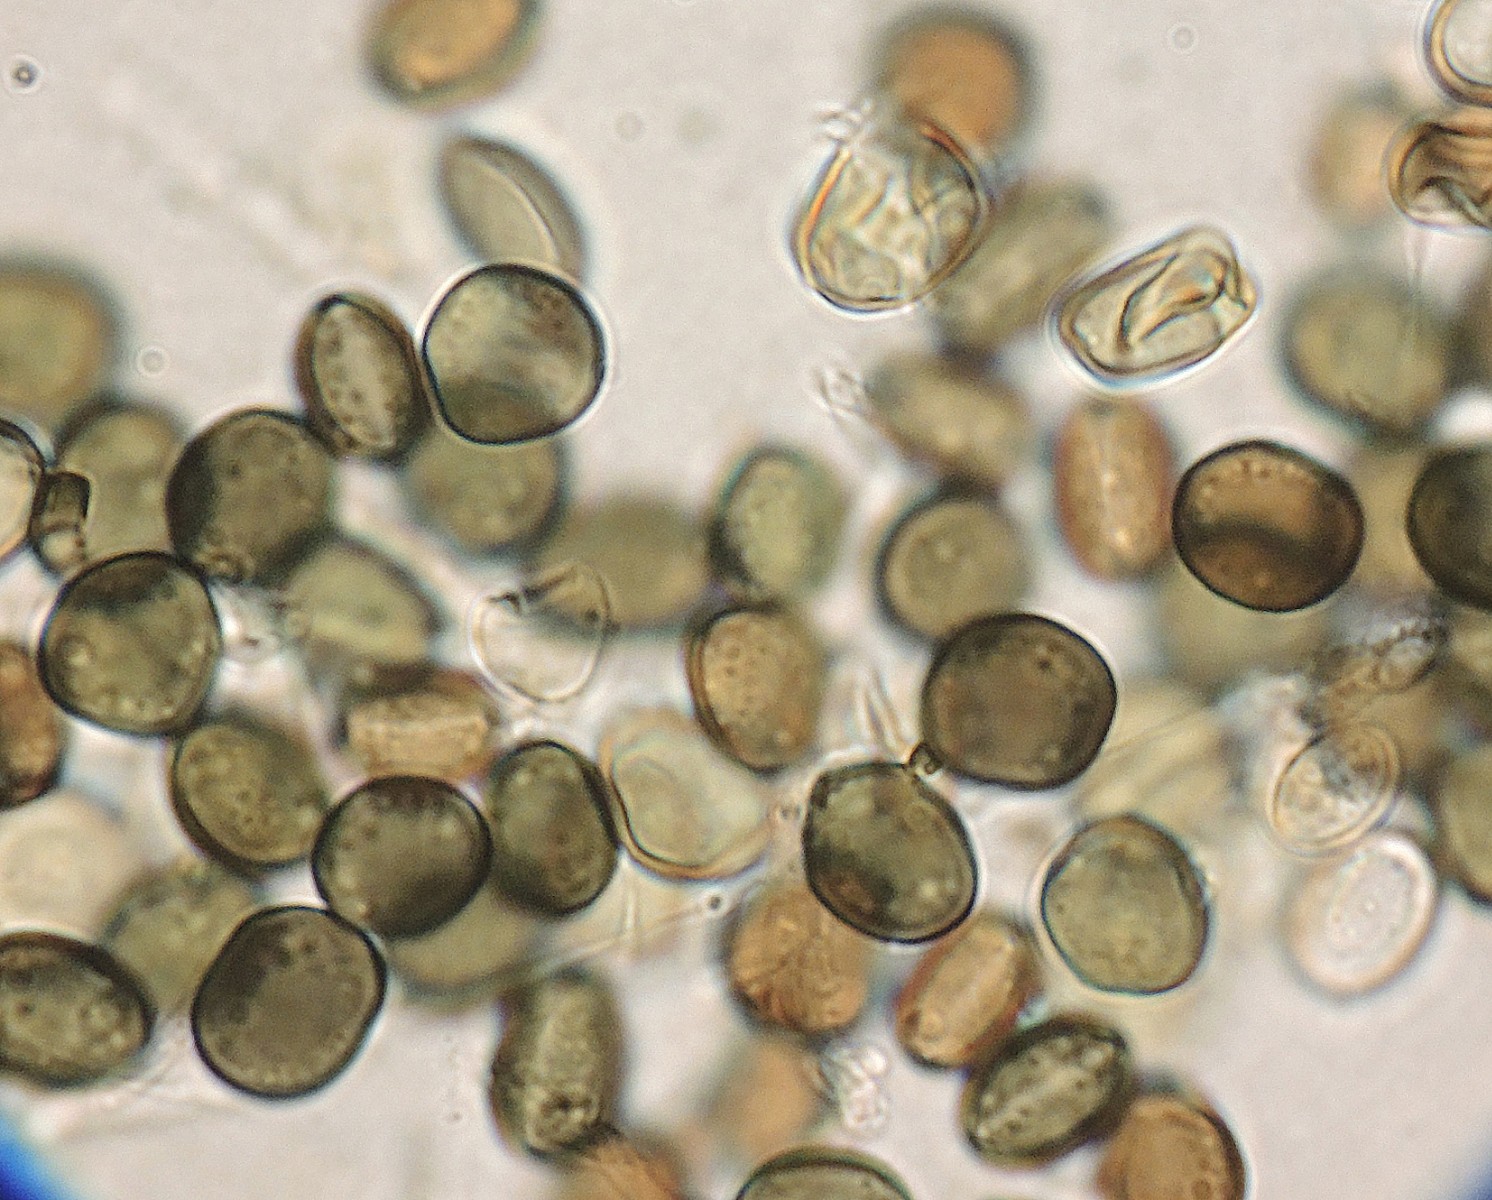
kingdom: Fungi
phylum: Ascomycota
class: Sordariomycetes
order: Xylariales
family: Apiosporaceae
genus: Apiospora
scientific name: Apiospora sphaerosperma
